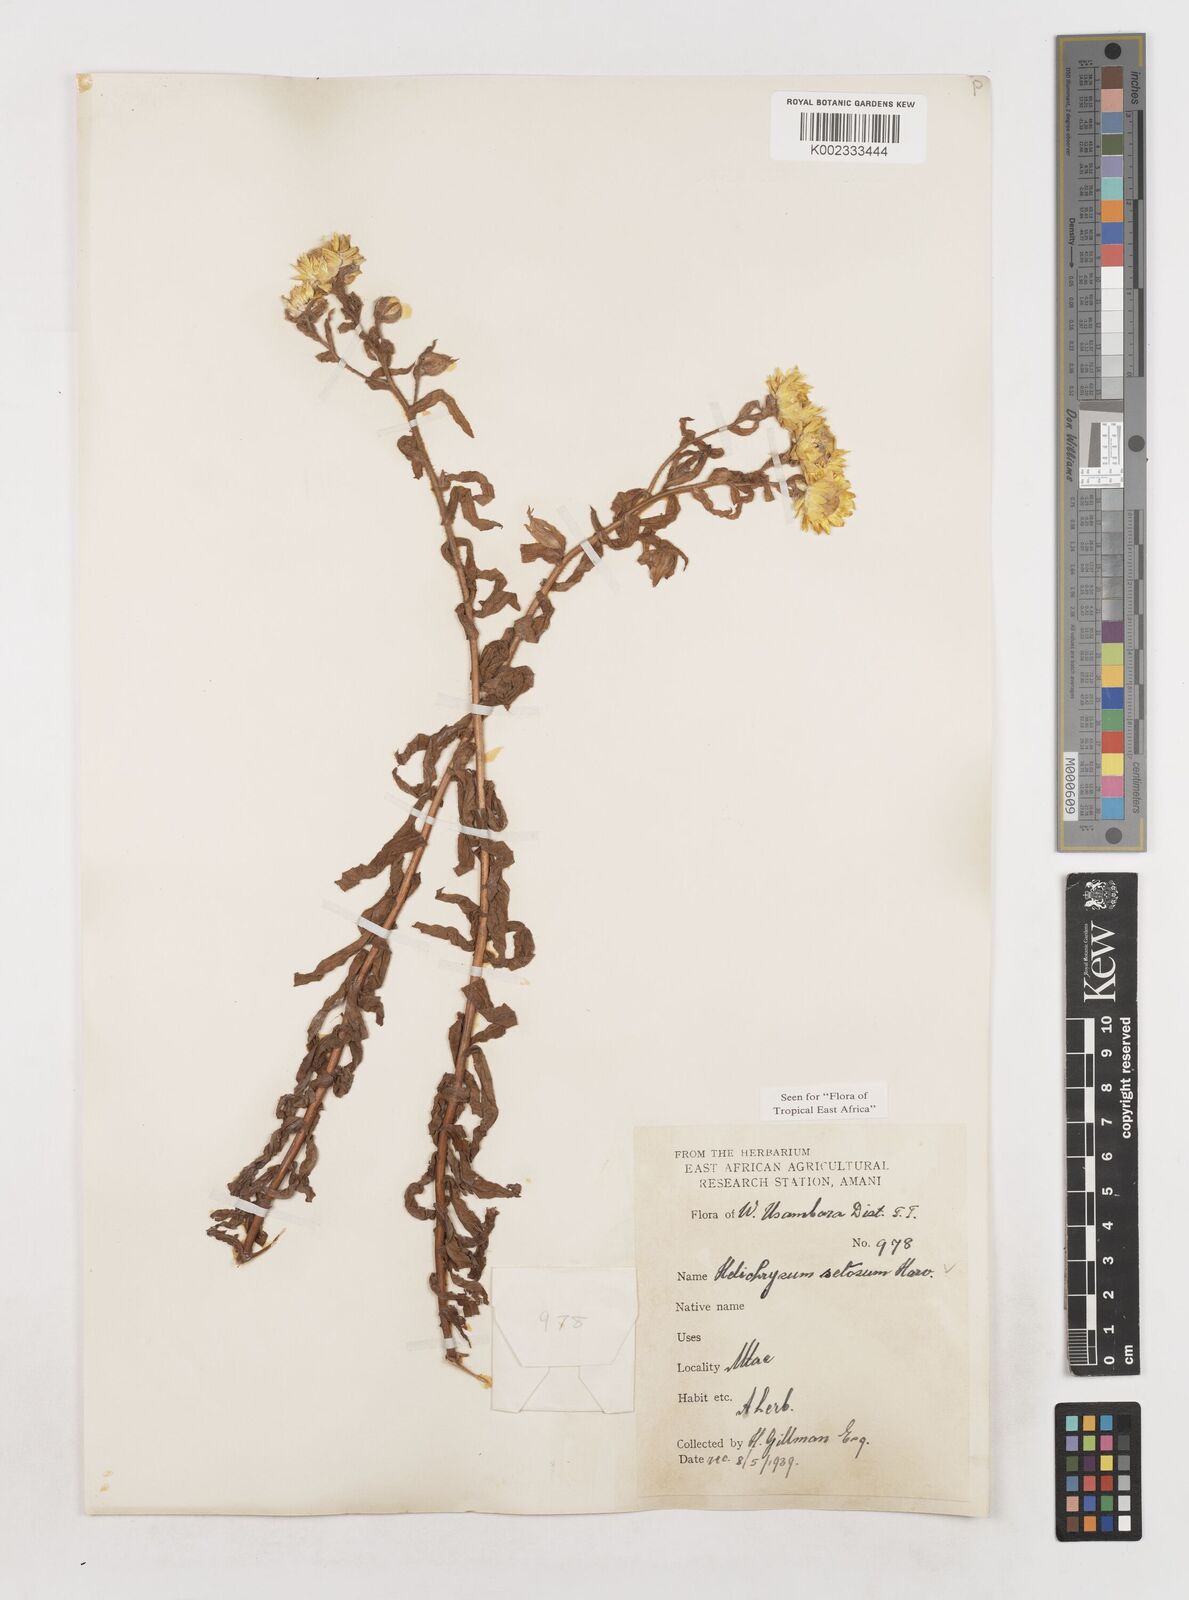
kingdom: Plantae
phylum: Tracheophyta
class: Magnoliopsida
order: Asterales
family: Asteraceae
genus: Helichrysum
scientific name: Helichrysum setosum
